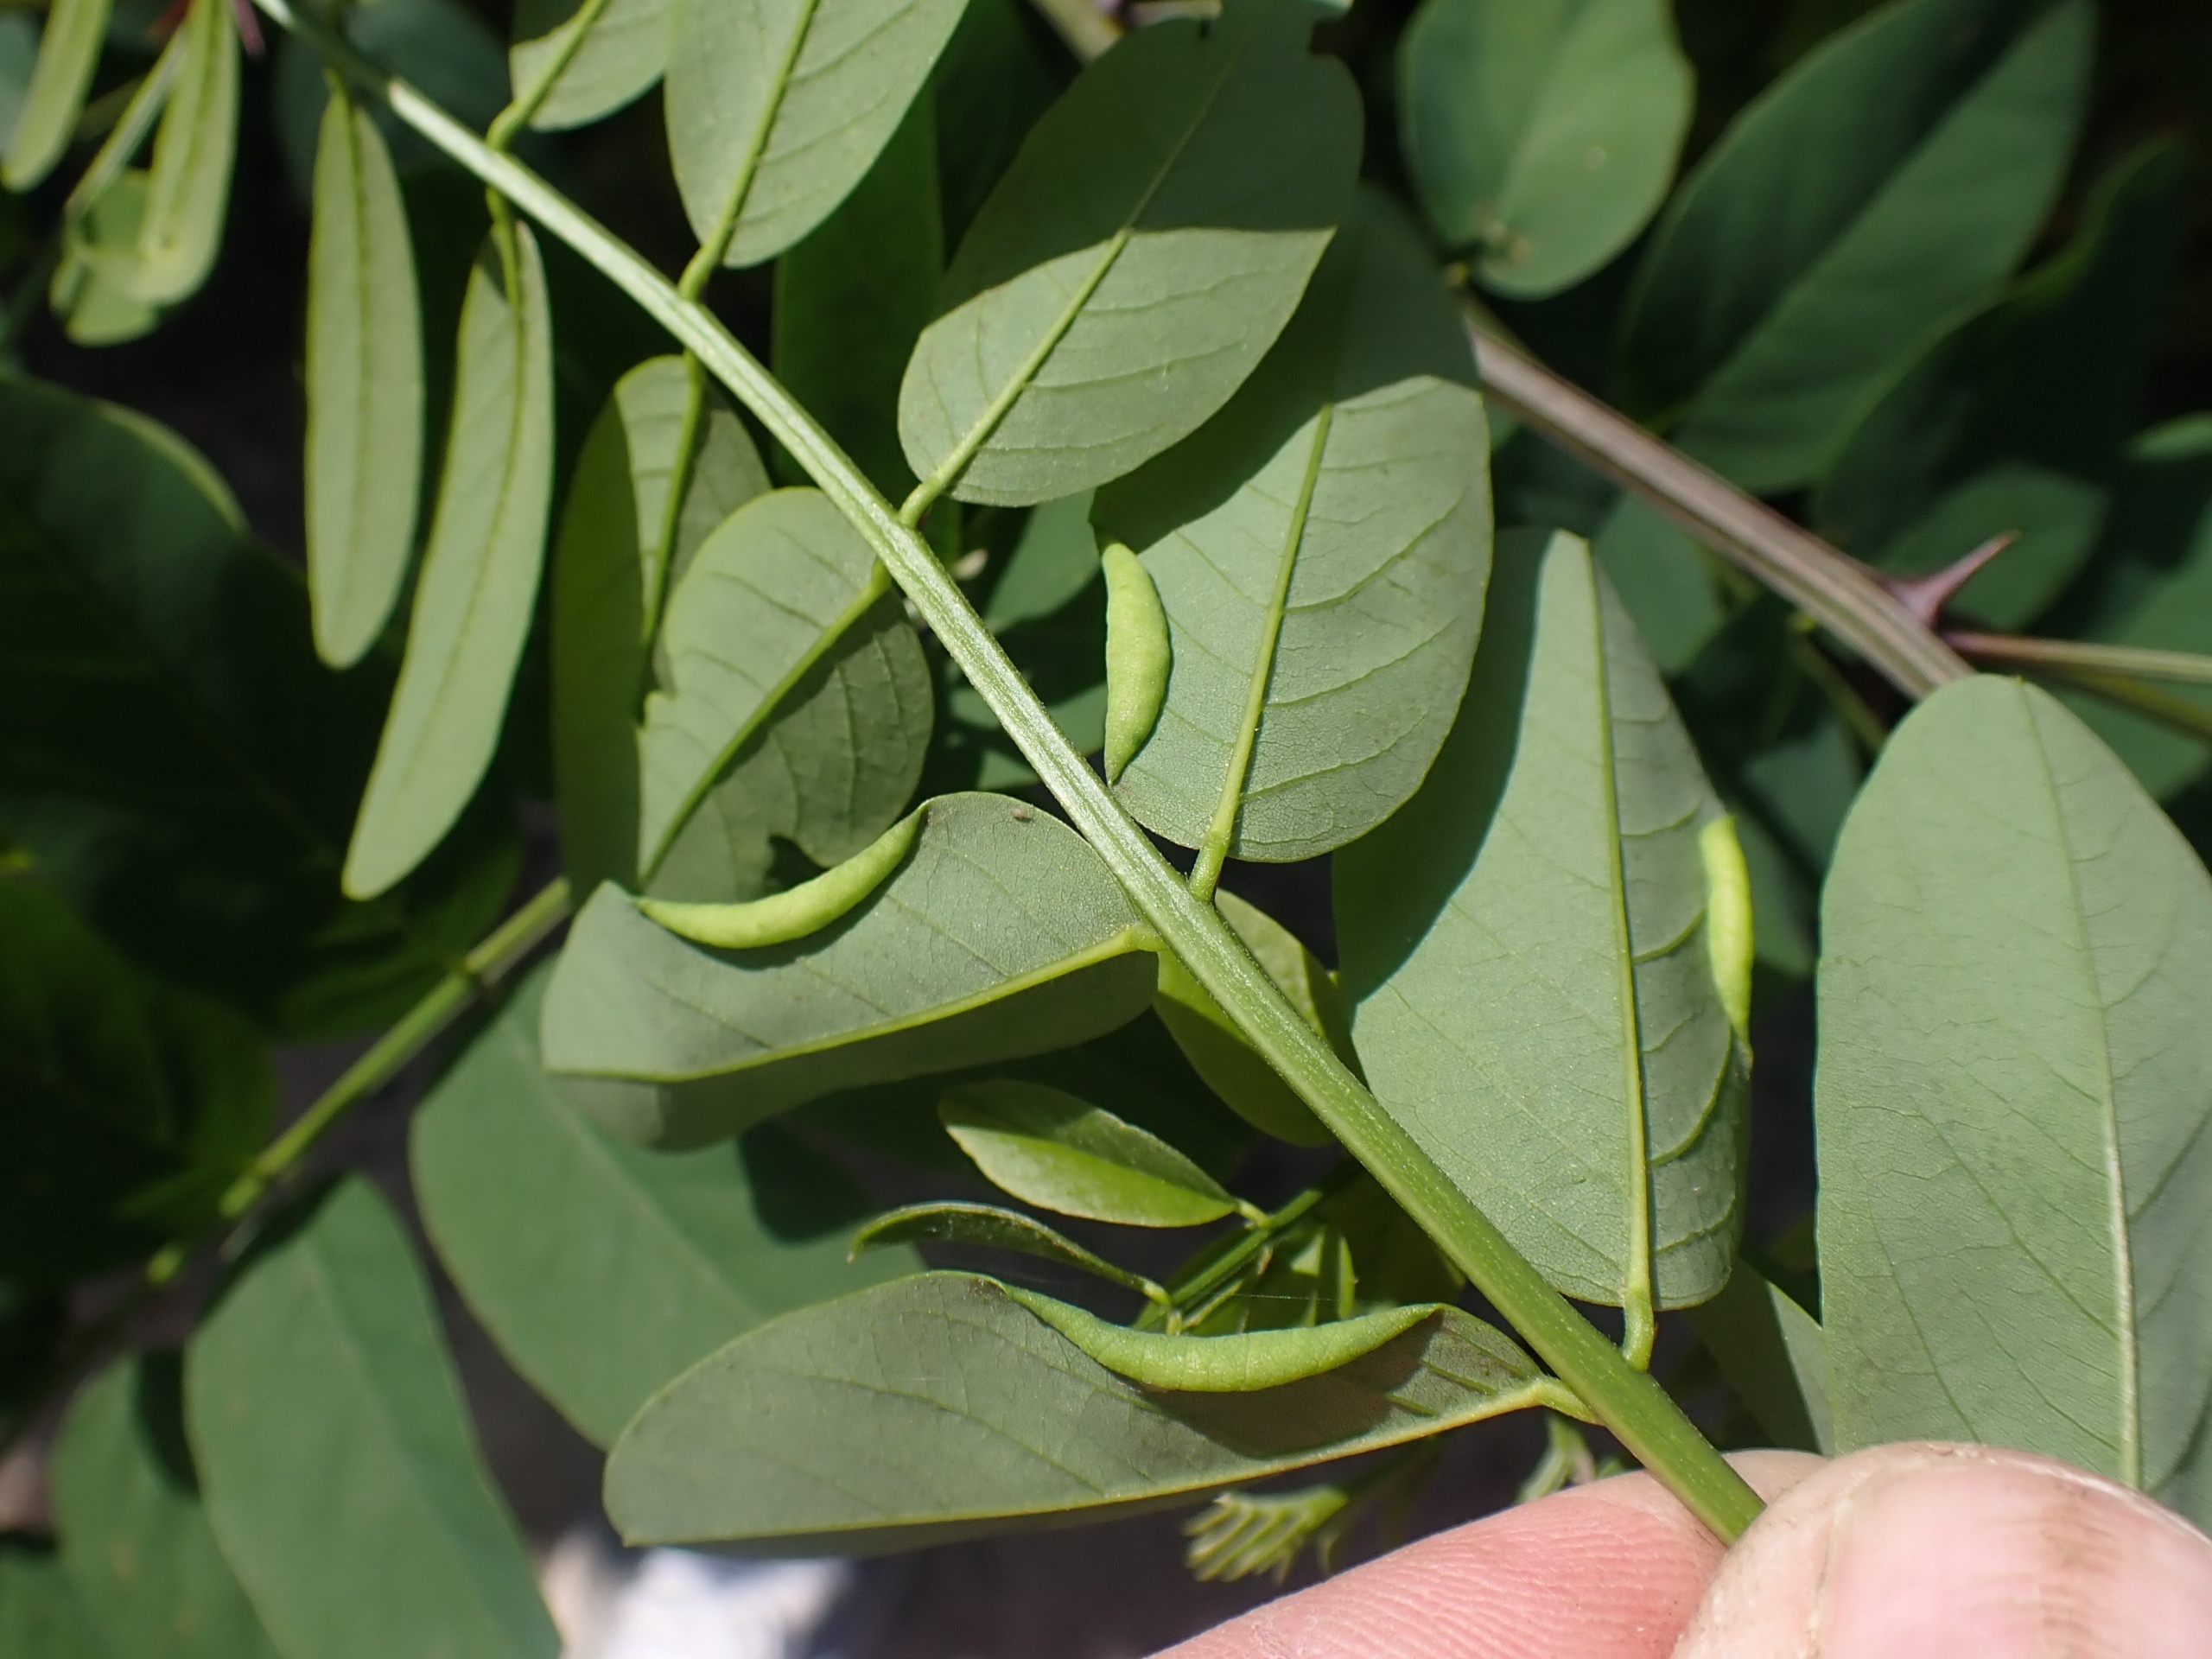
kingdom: Animalia
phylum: Arthropoda
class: Insecta
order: Diptera
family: Cecidomyiidae
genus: Obolodiplosis
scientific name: Obolodiplosis robiniae
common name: Robiniegalmyg
